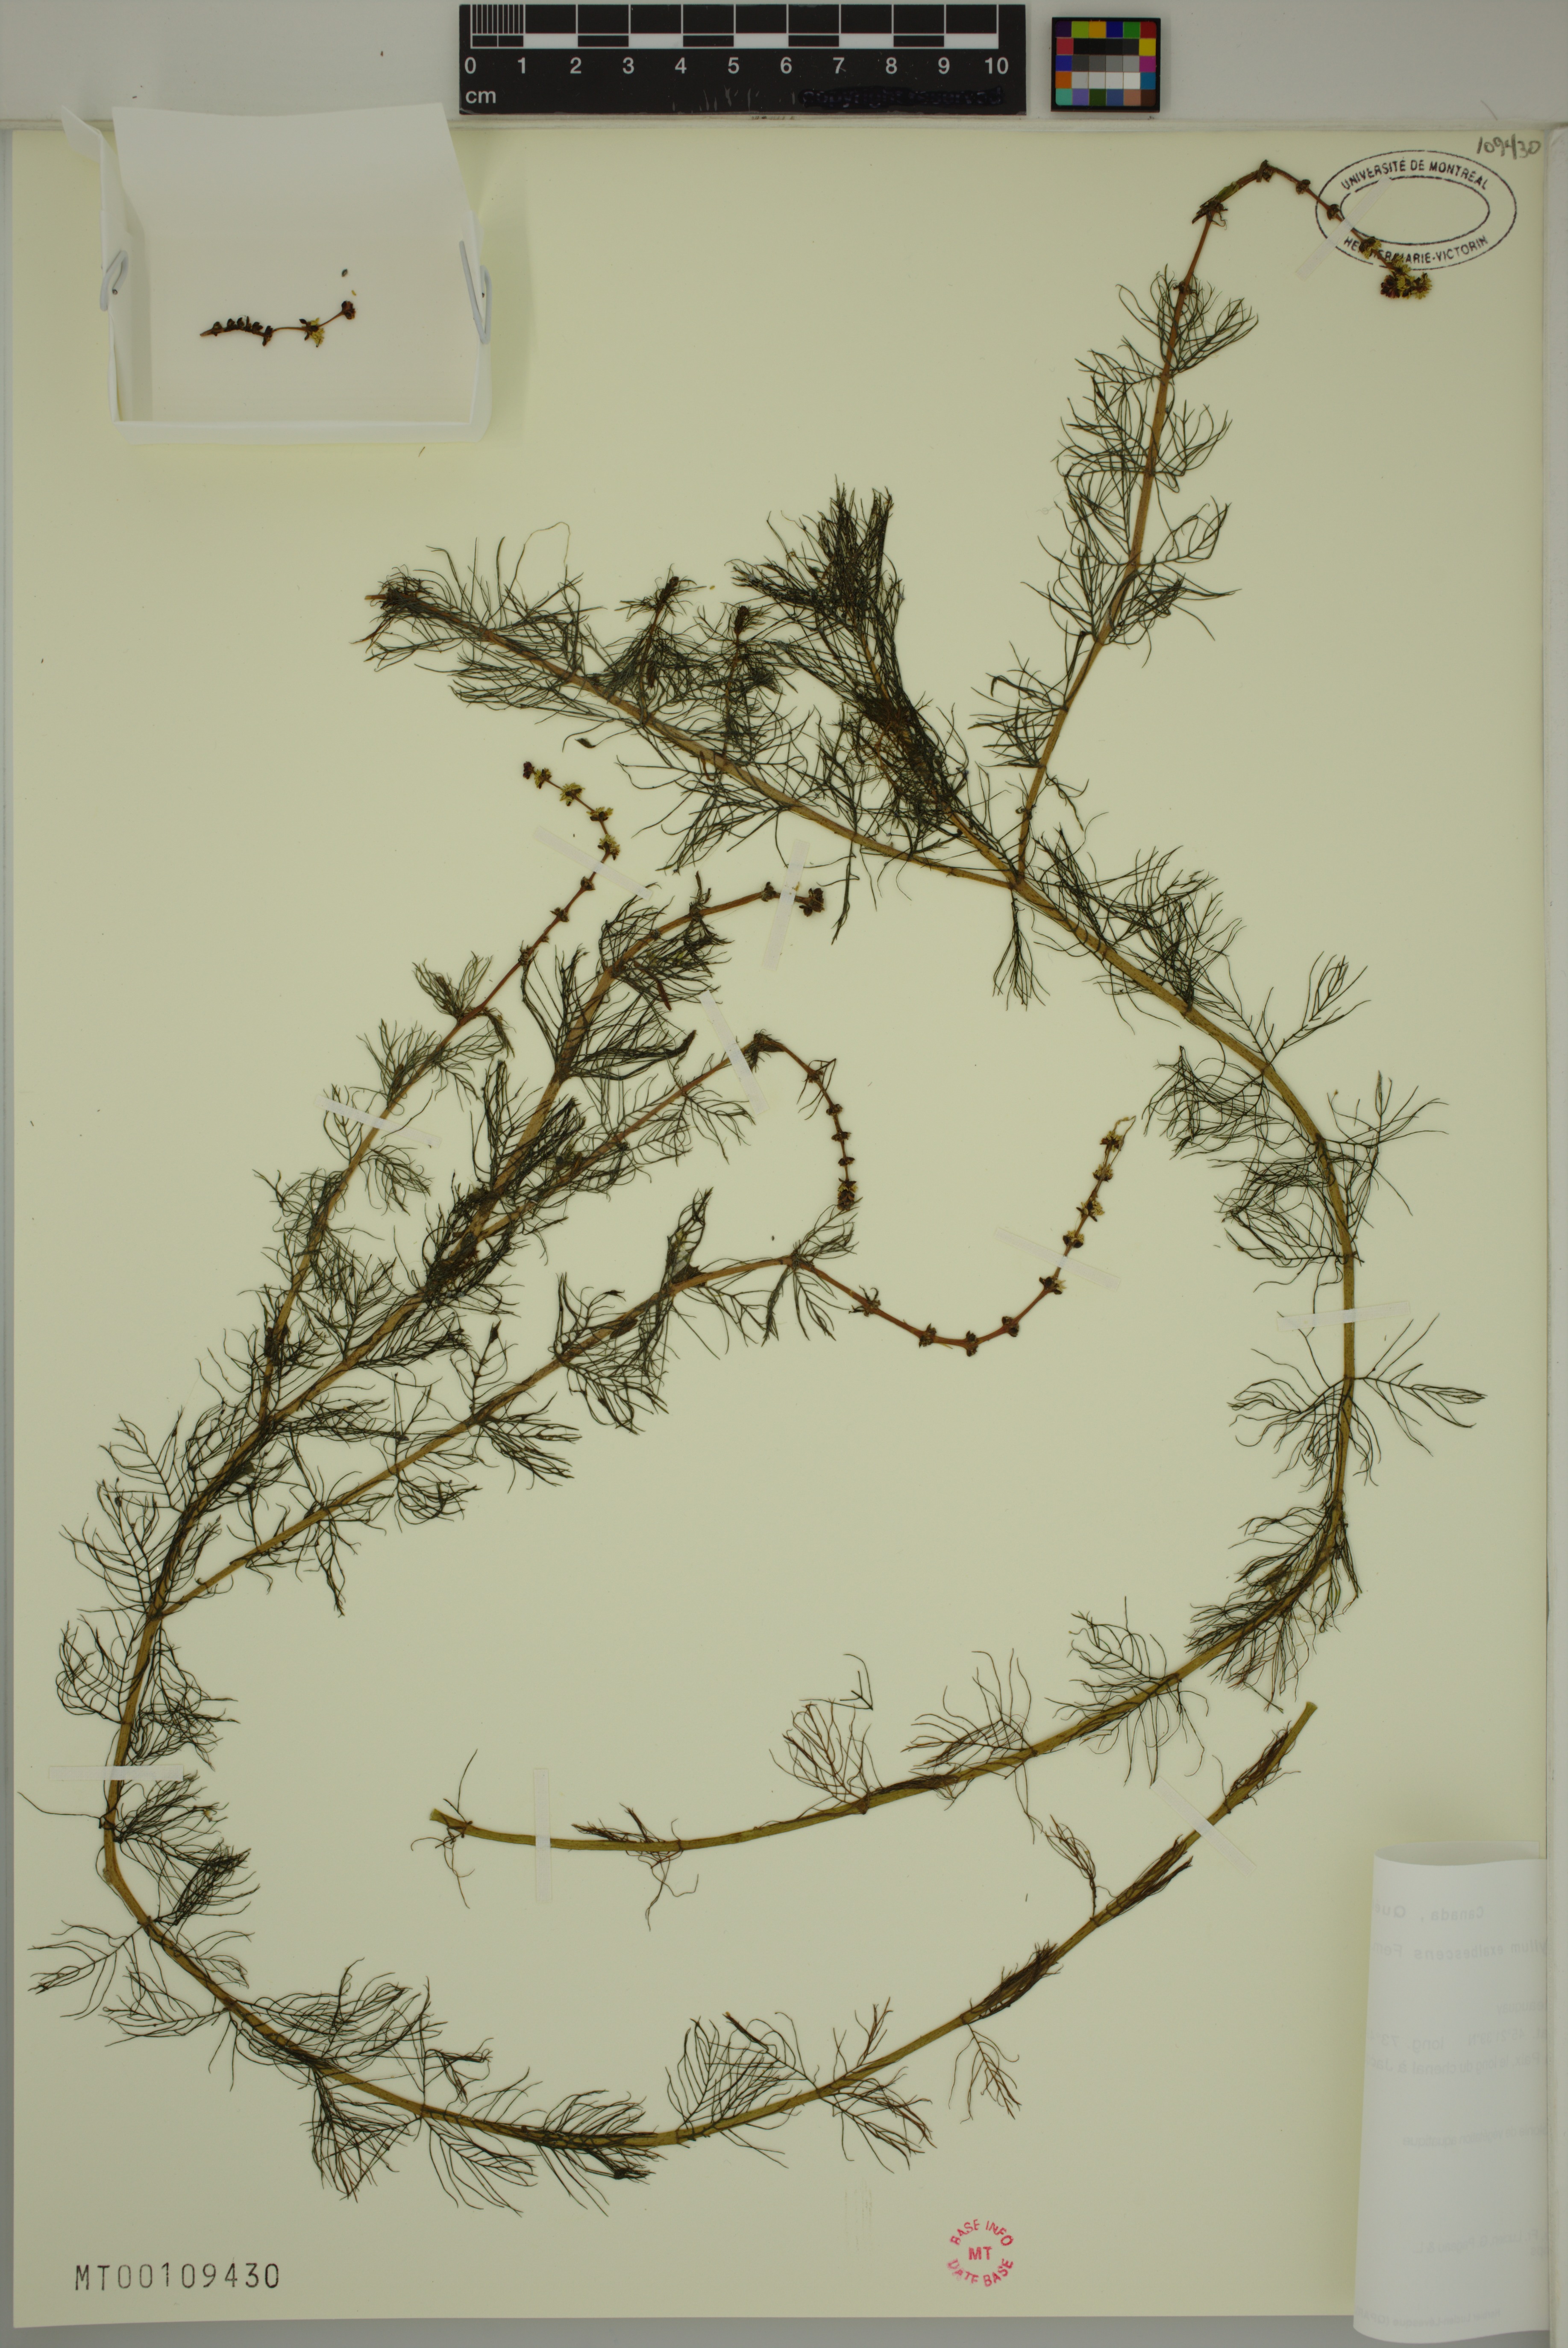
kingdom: Plantae
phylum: Tracheophyta
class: Magnoliopsida
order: Saxifragales
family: Haloragaceae
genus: Myriophyllum
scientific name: Myriophyllum sibiricum
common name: Siberian water-milfoil
